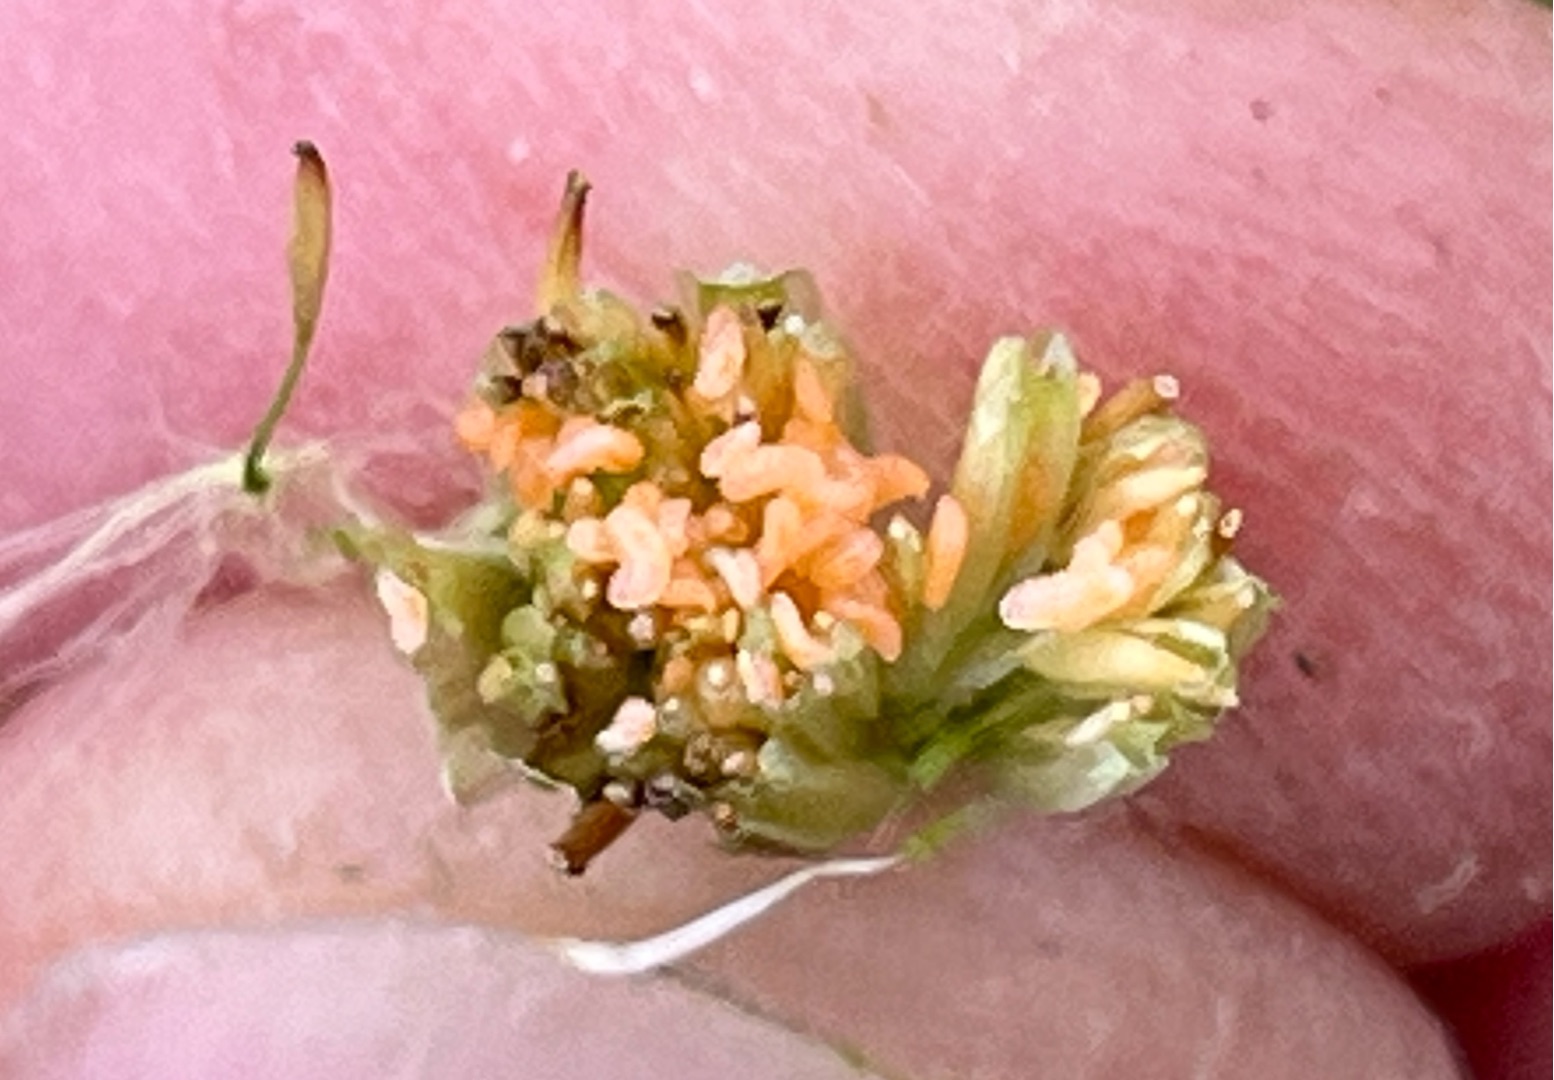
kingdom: Animalia
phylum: Arthropoda
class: Insecta
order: Diptera
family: Cecidomyiidae
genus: Jaapiella
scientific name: Jaapiella hypochoeridis
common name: Orange kongepengalmyg
